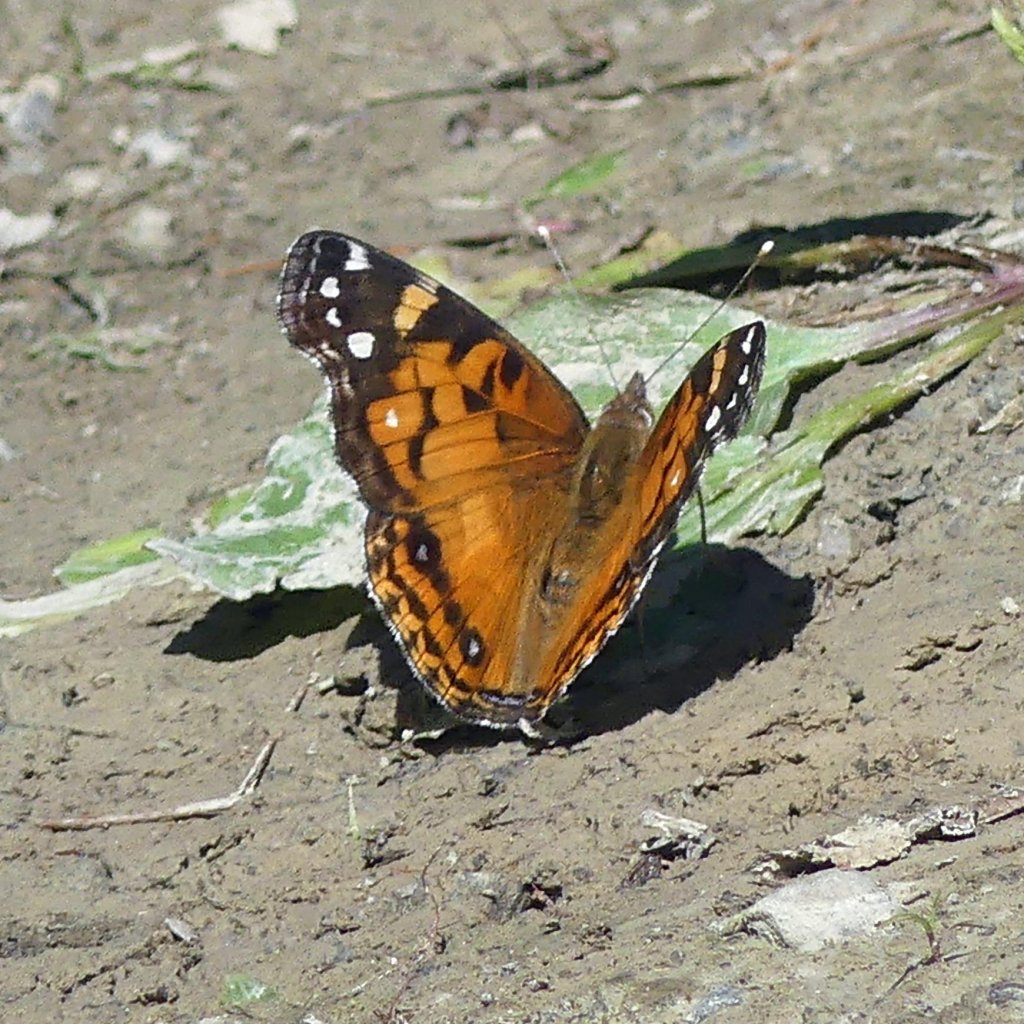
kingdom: Animalia
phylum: Arthropoda
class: Insecta
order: Lepidoptera
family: Nymphalidae
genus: Vanessa
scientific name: Vanessa virginiensis
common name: American Lady
